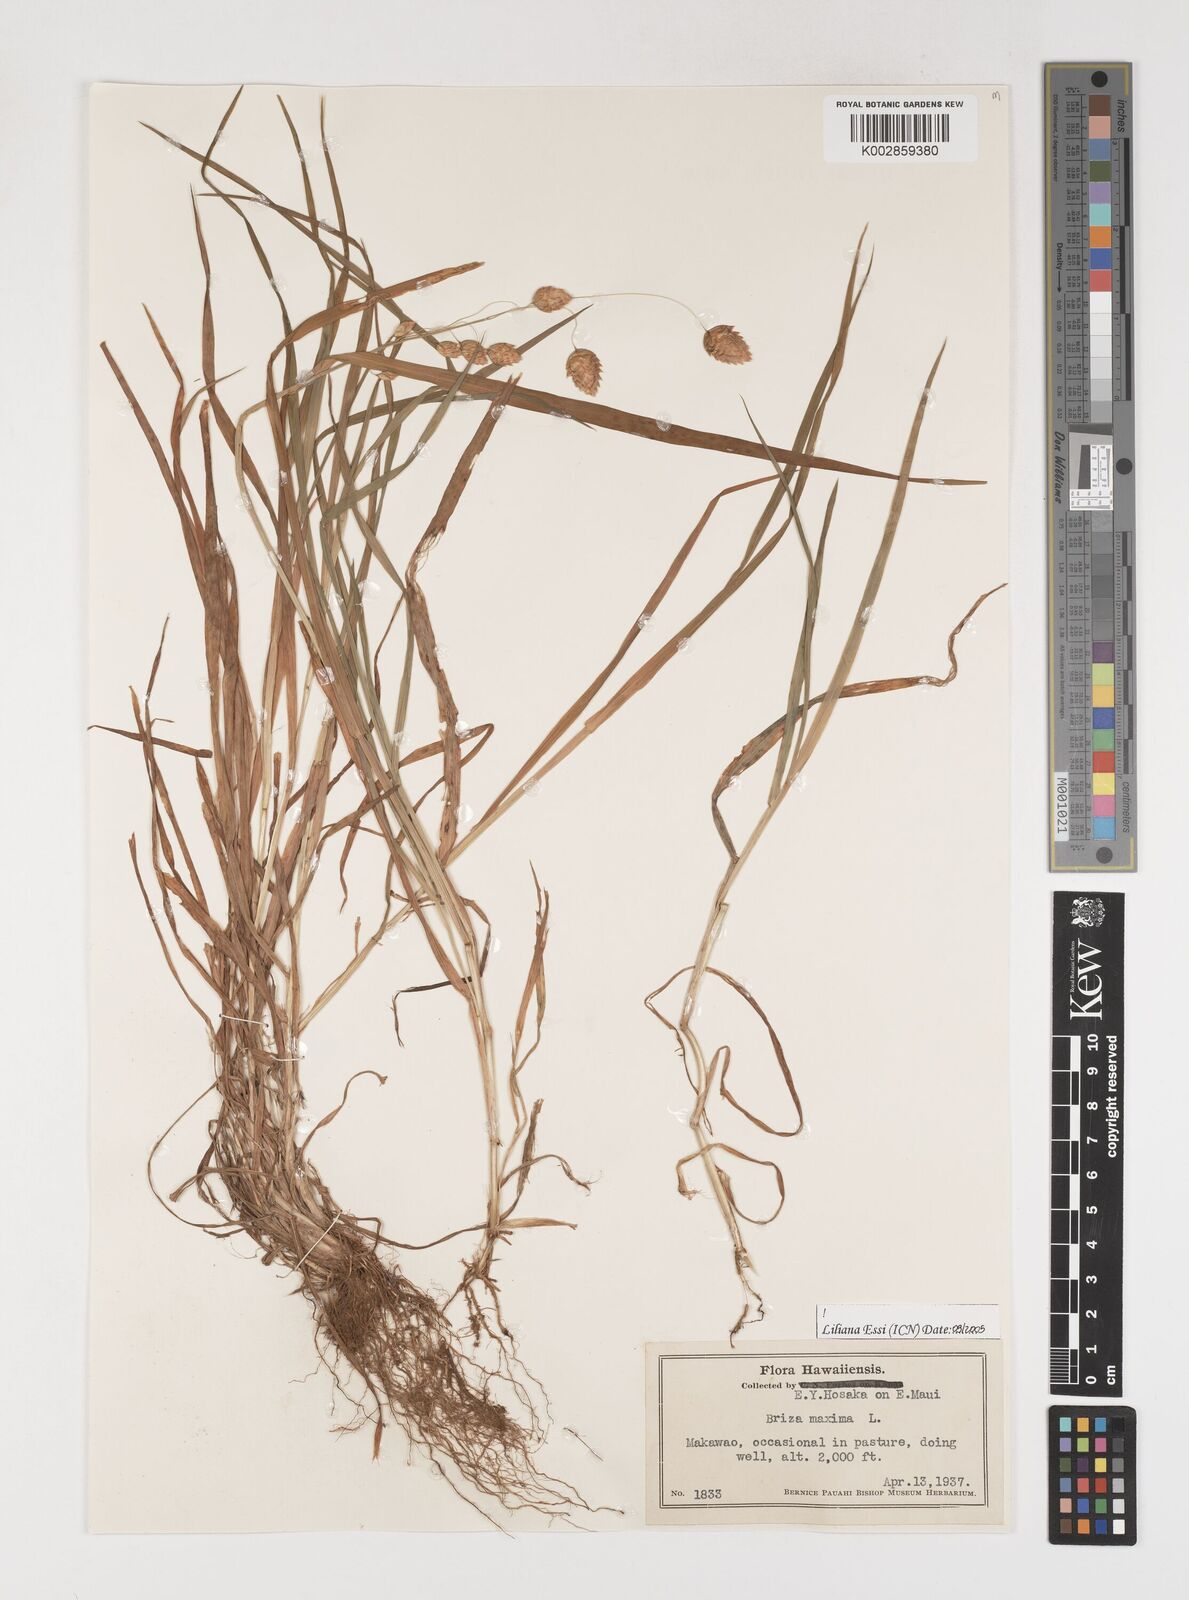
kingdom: Plantae
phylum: Tracheophyta
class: Liliopsida
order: Poales
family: Poaceae
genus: Briza
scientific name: Briza maxima
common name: Big quakinggrass
